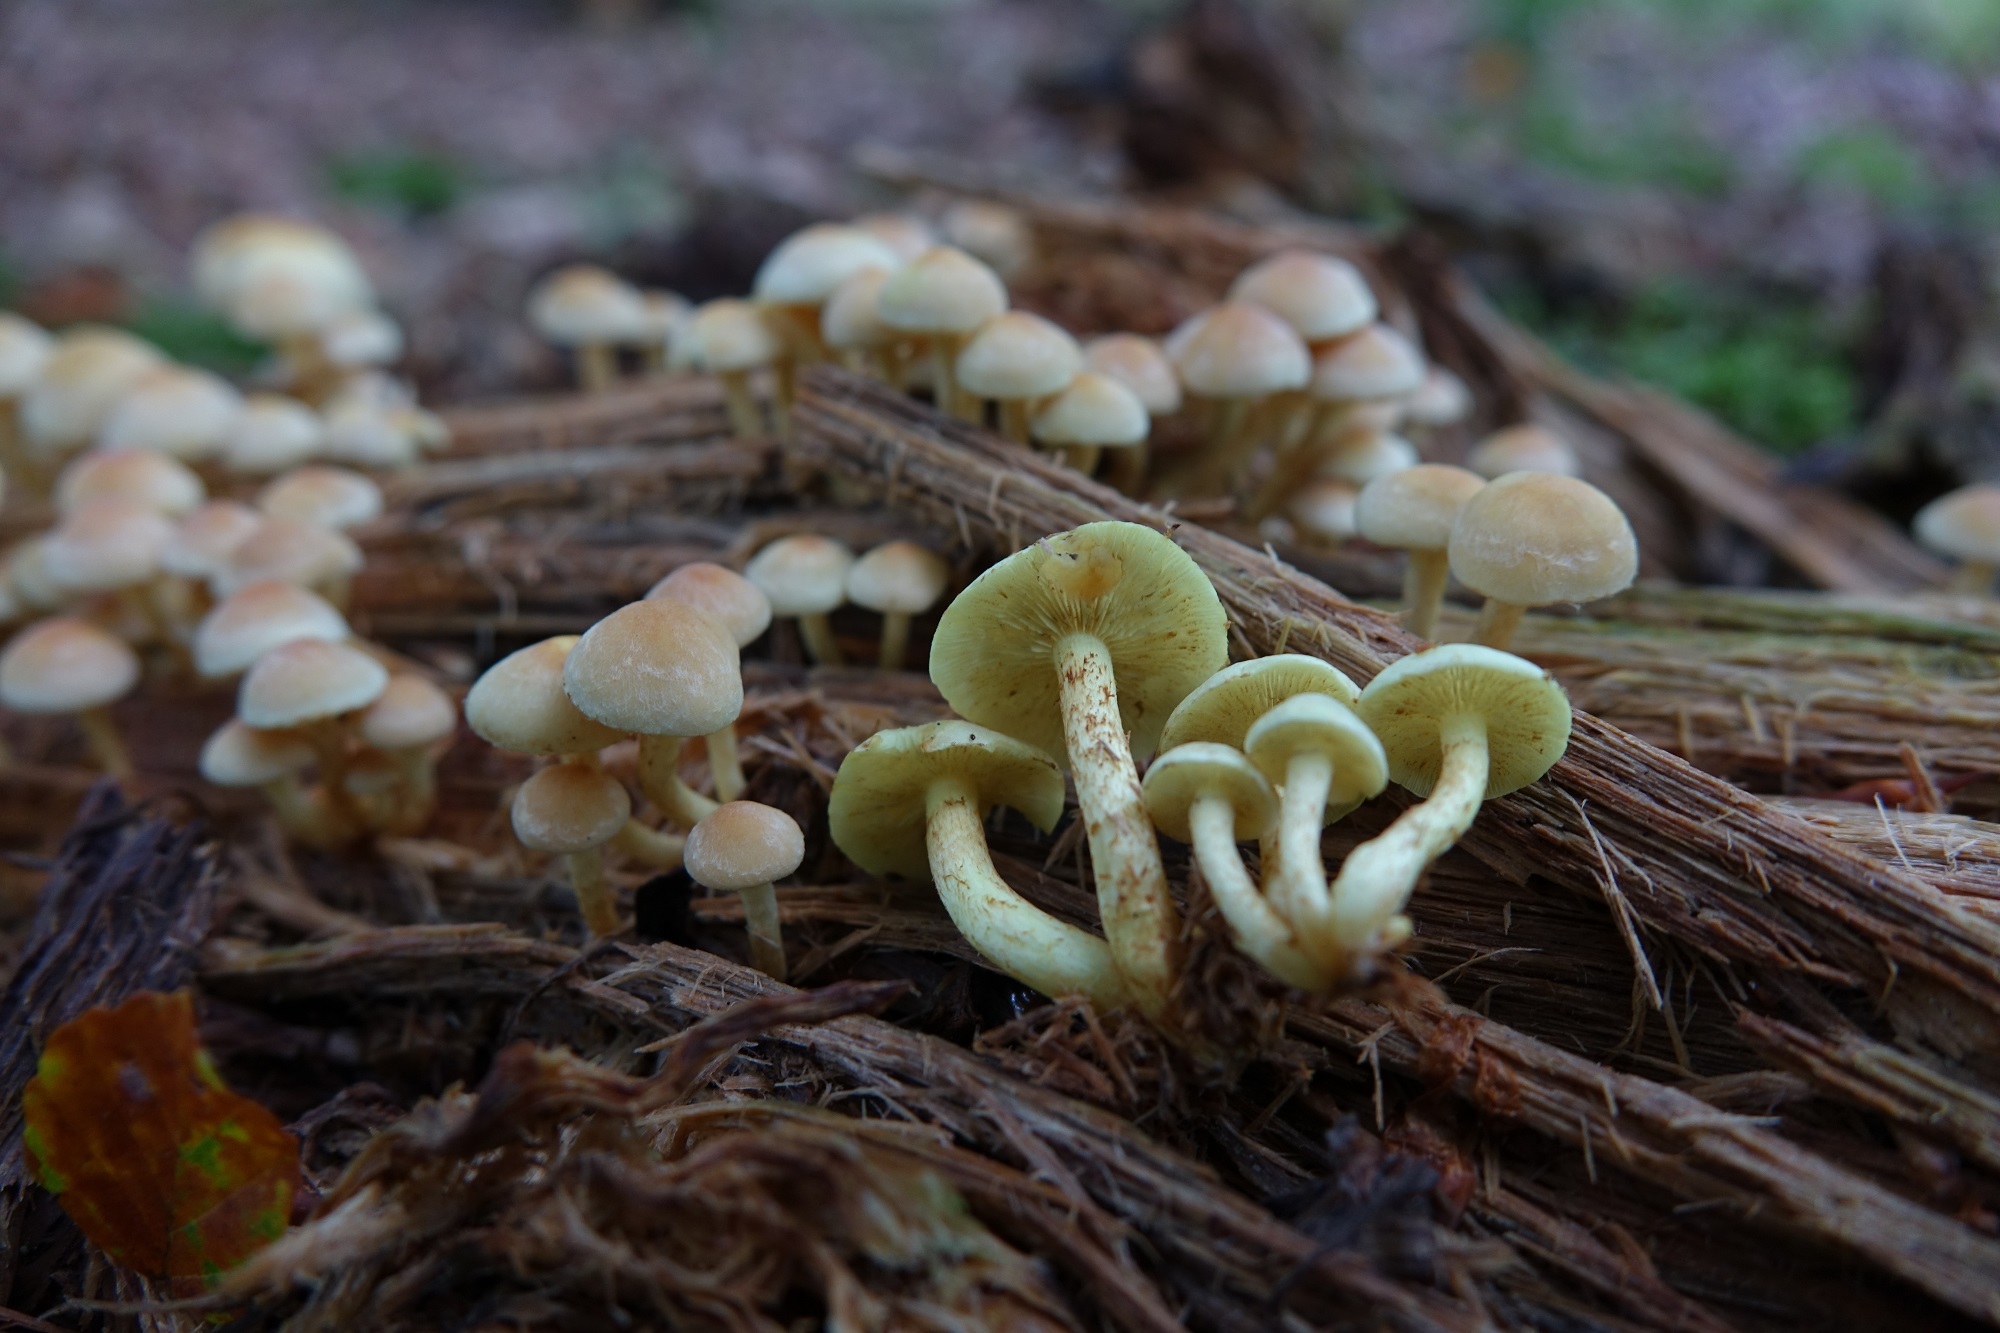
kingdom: Fungi
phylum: Basidiomycota
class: Agaricomycetes
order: Agaricales
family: Strophariaceae
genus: Hypholoma
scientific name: Hypholoma fasciculare
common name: Sulphur tuft
